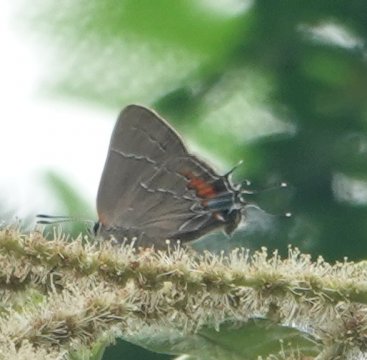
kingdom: Animalia
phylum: Arthropoda
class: Insecta
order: Lepidoptera
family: Lycaenidae
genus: Fixsenia
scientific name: Fixsenia favonius
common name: Oak Hairstreak
